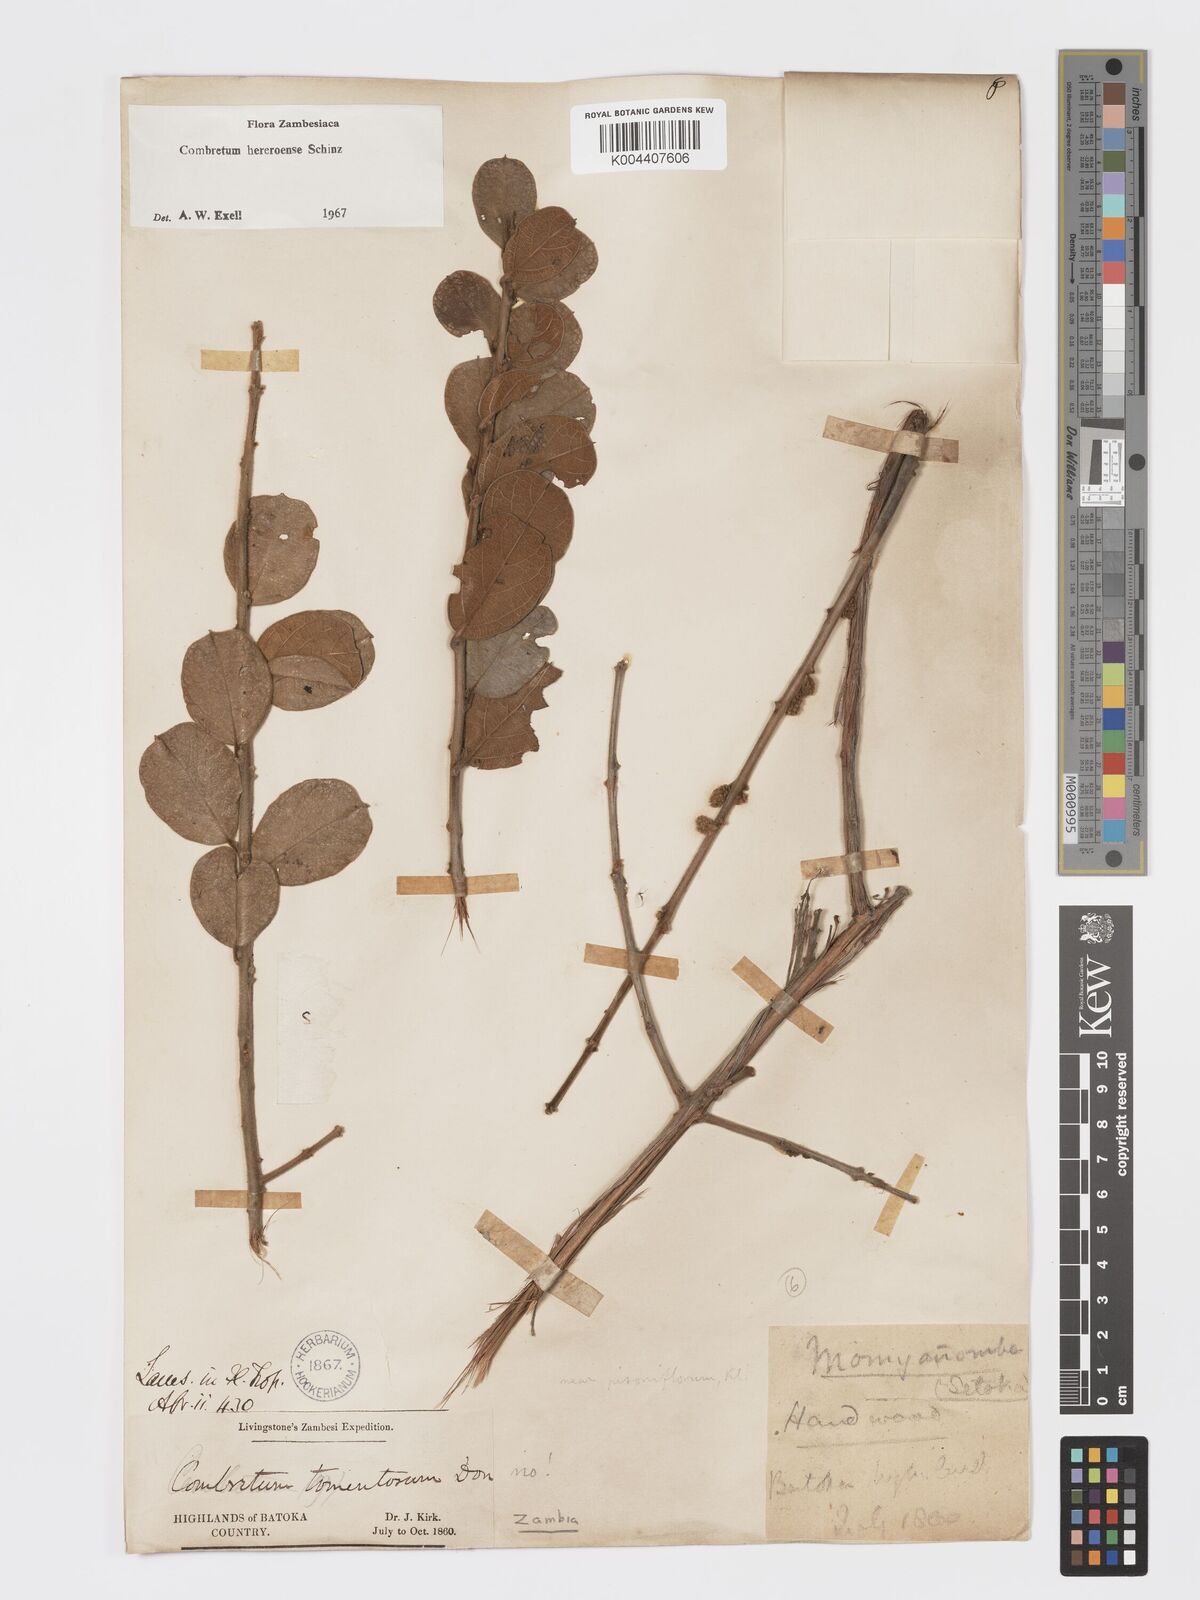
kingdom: Plantae
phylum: Tracheophyta
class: Magnoliopsida
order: Myrtales
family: Combretaceae
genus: Combretum
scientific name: Combretum hereroense
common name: Russet bushwillow
